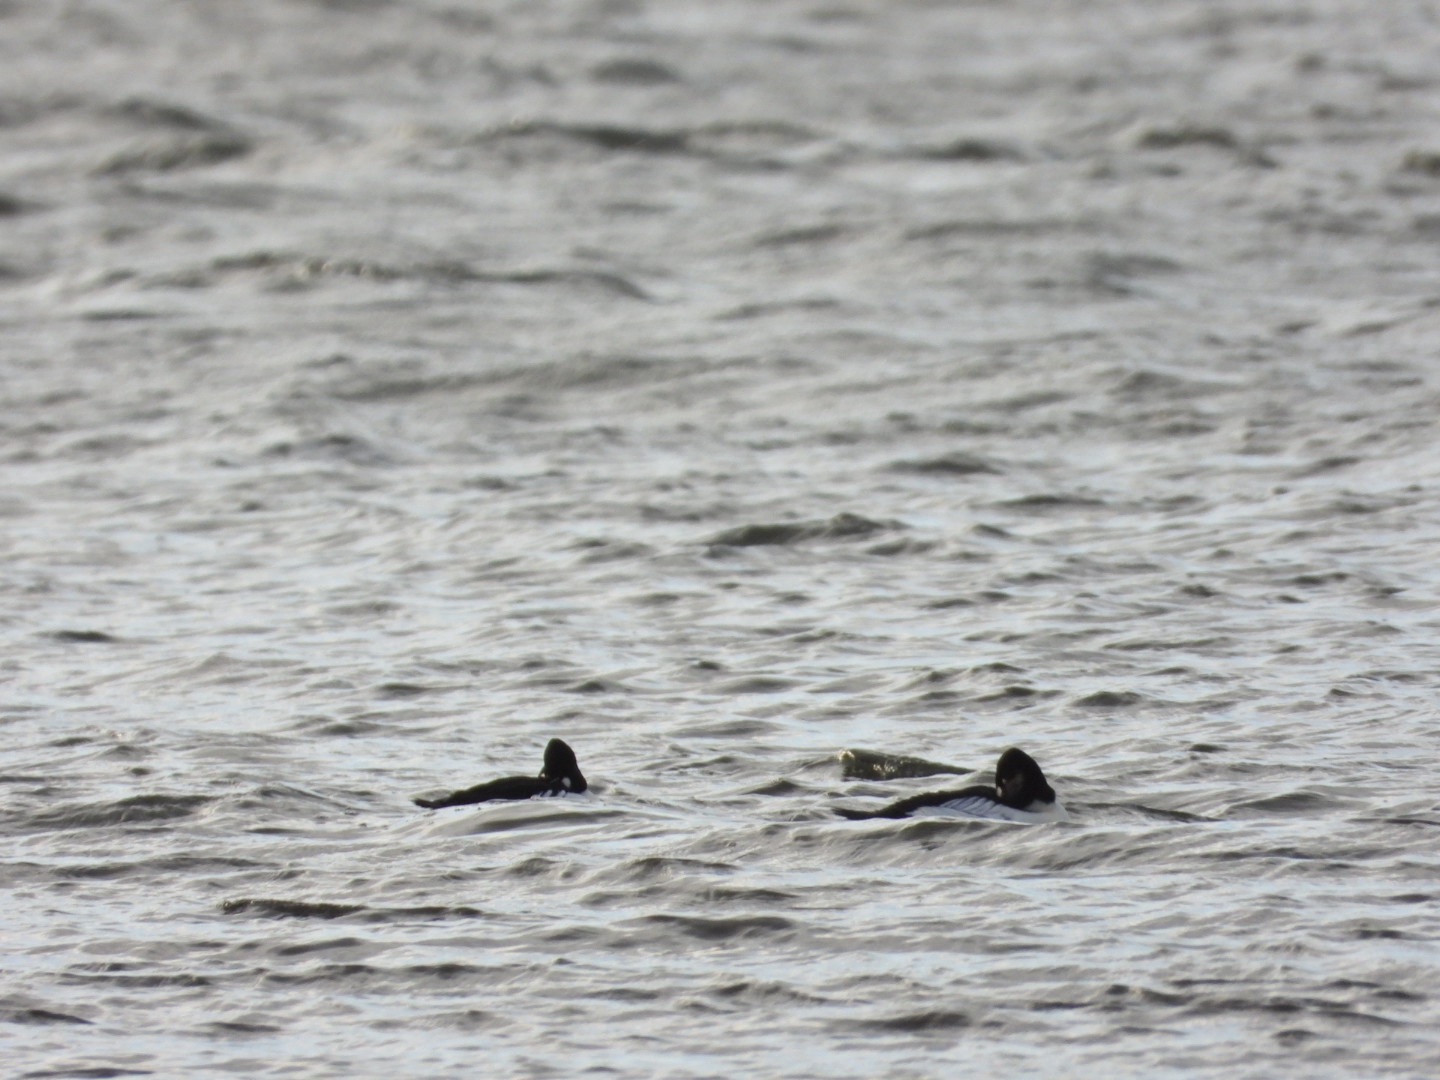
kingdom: Animalia
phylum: Chordata
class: Aves
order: Anseriformes
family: Anatidae
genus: Bucephala
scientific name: Bucephala clangula
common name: Hvinand
